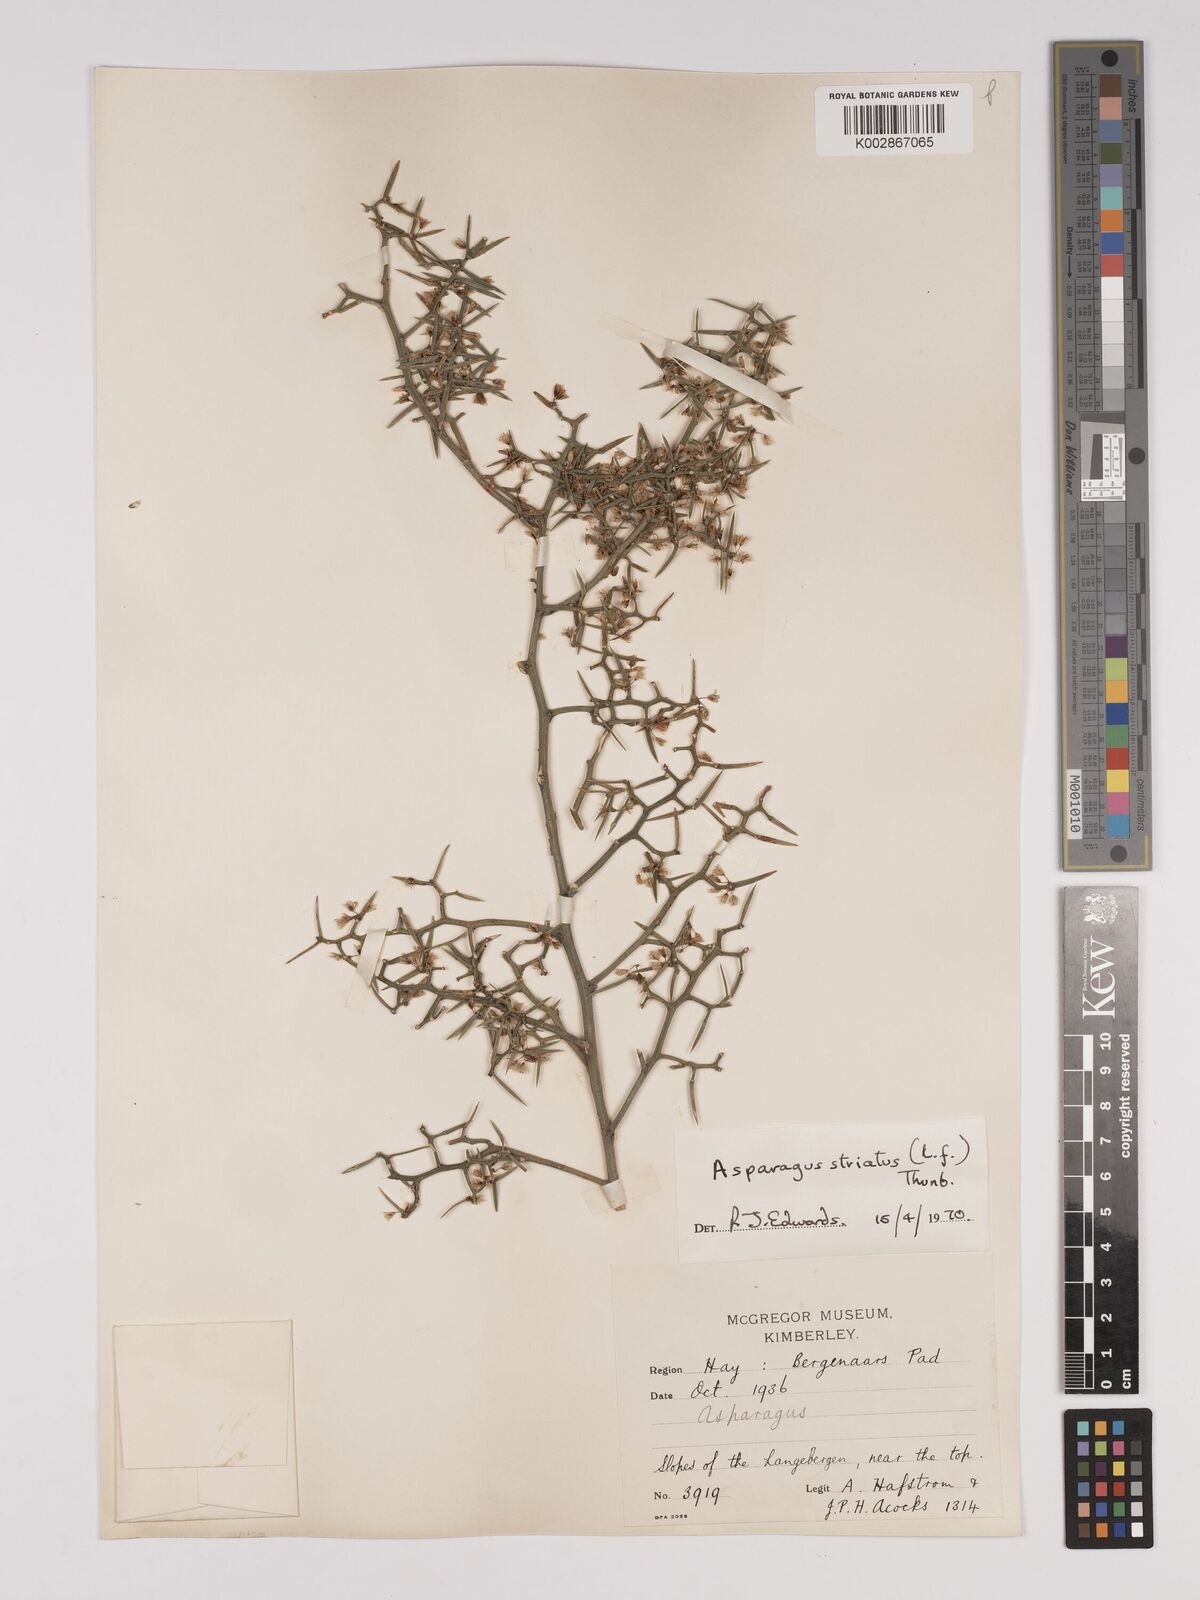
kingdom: Plantae
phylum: Tracheophyta
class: Liliopsida
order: Asparagales
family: Asparagaceae
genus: Asparagus
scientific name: Asparagus striatus
